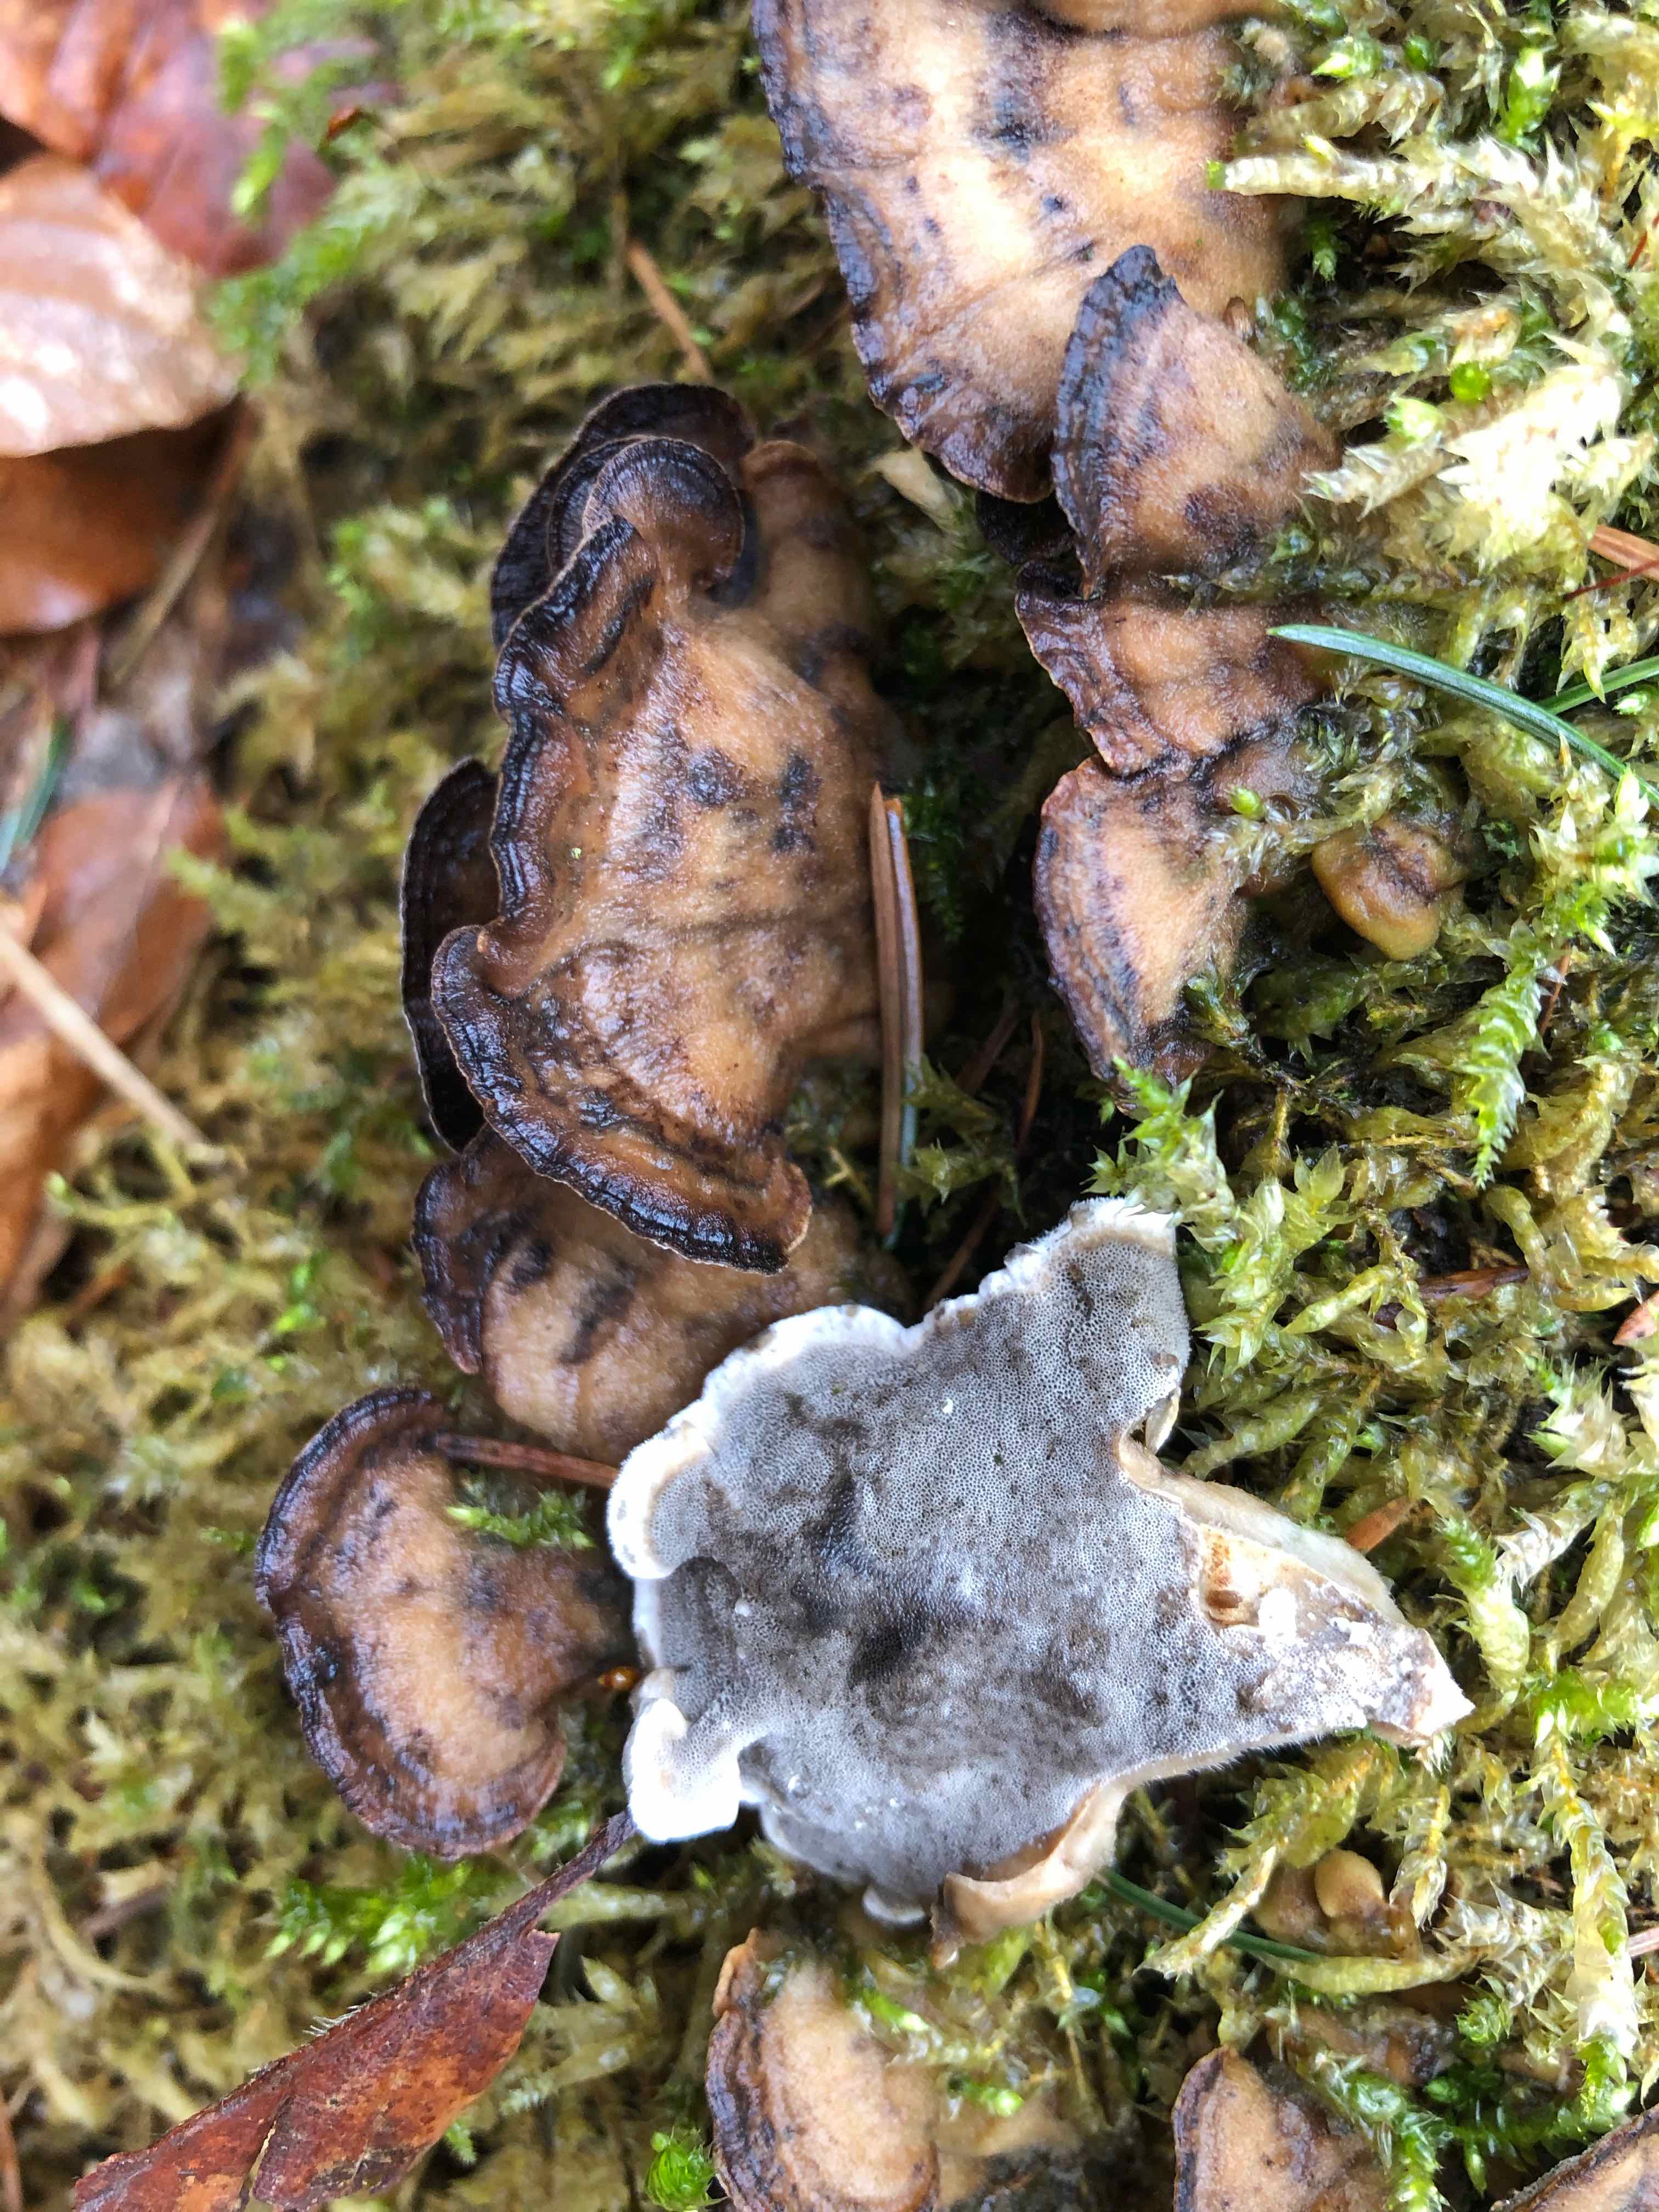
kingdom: Fungi
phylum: Basidiomycota
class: Agaricomycetes
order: Polyporales
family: Phanerochaetaceae
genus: Bjerkandera
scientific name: Bjerkandera adusta
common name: sveden sodporesvamp
